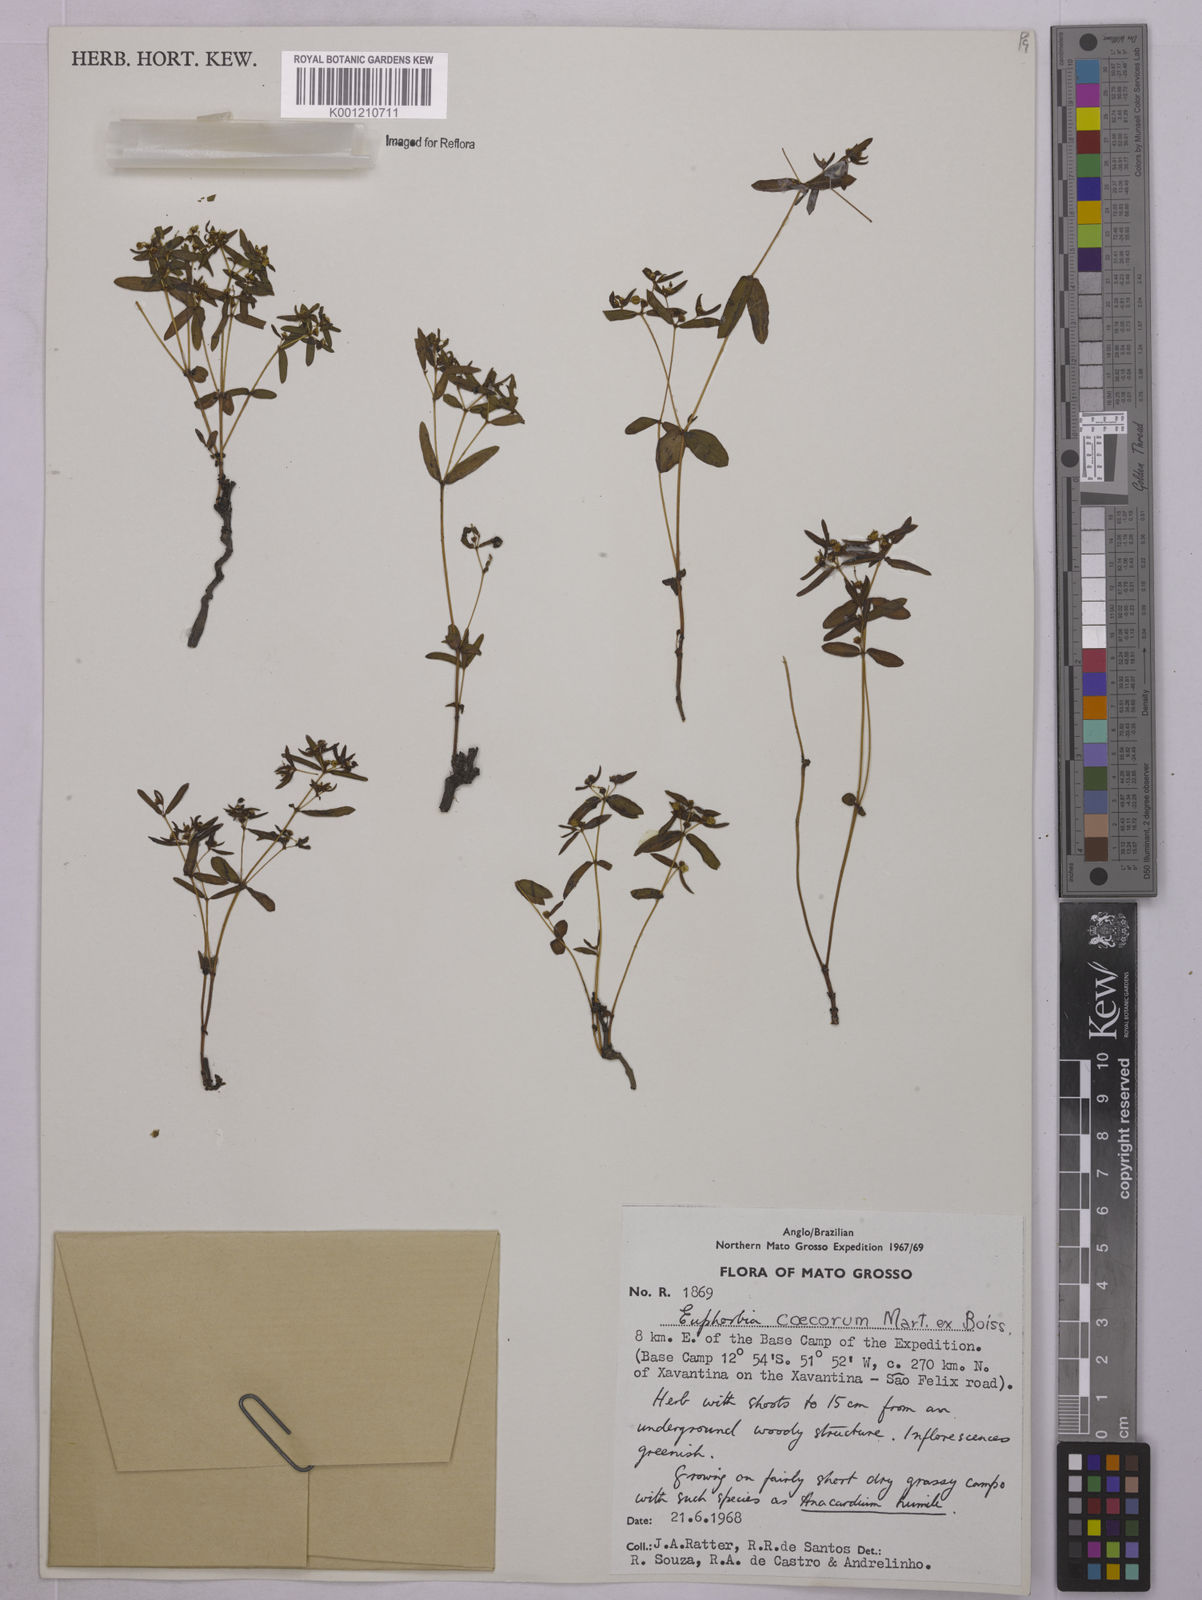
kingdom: Plantae
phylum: Tracheophyta
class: Magnoliopsida
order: Malpighiales
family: Euphorbiaceae
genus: Euphorbia
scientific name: Euphorbia potentilloides
